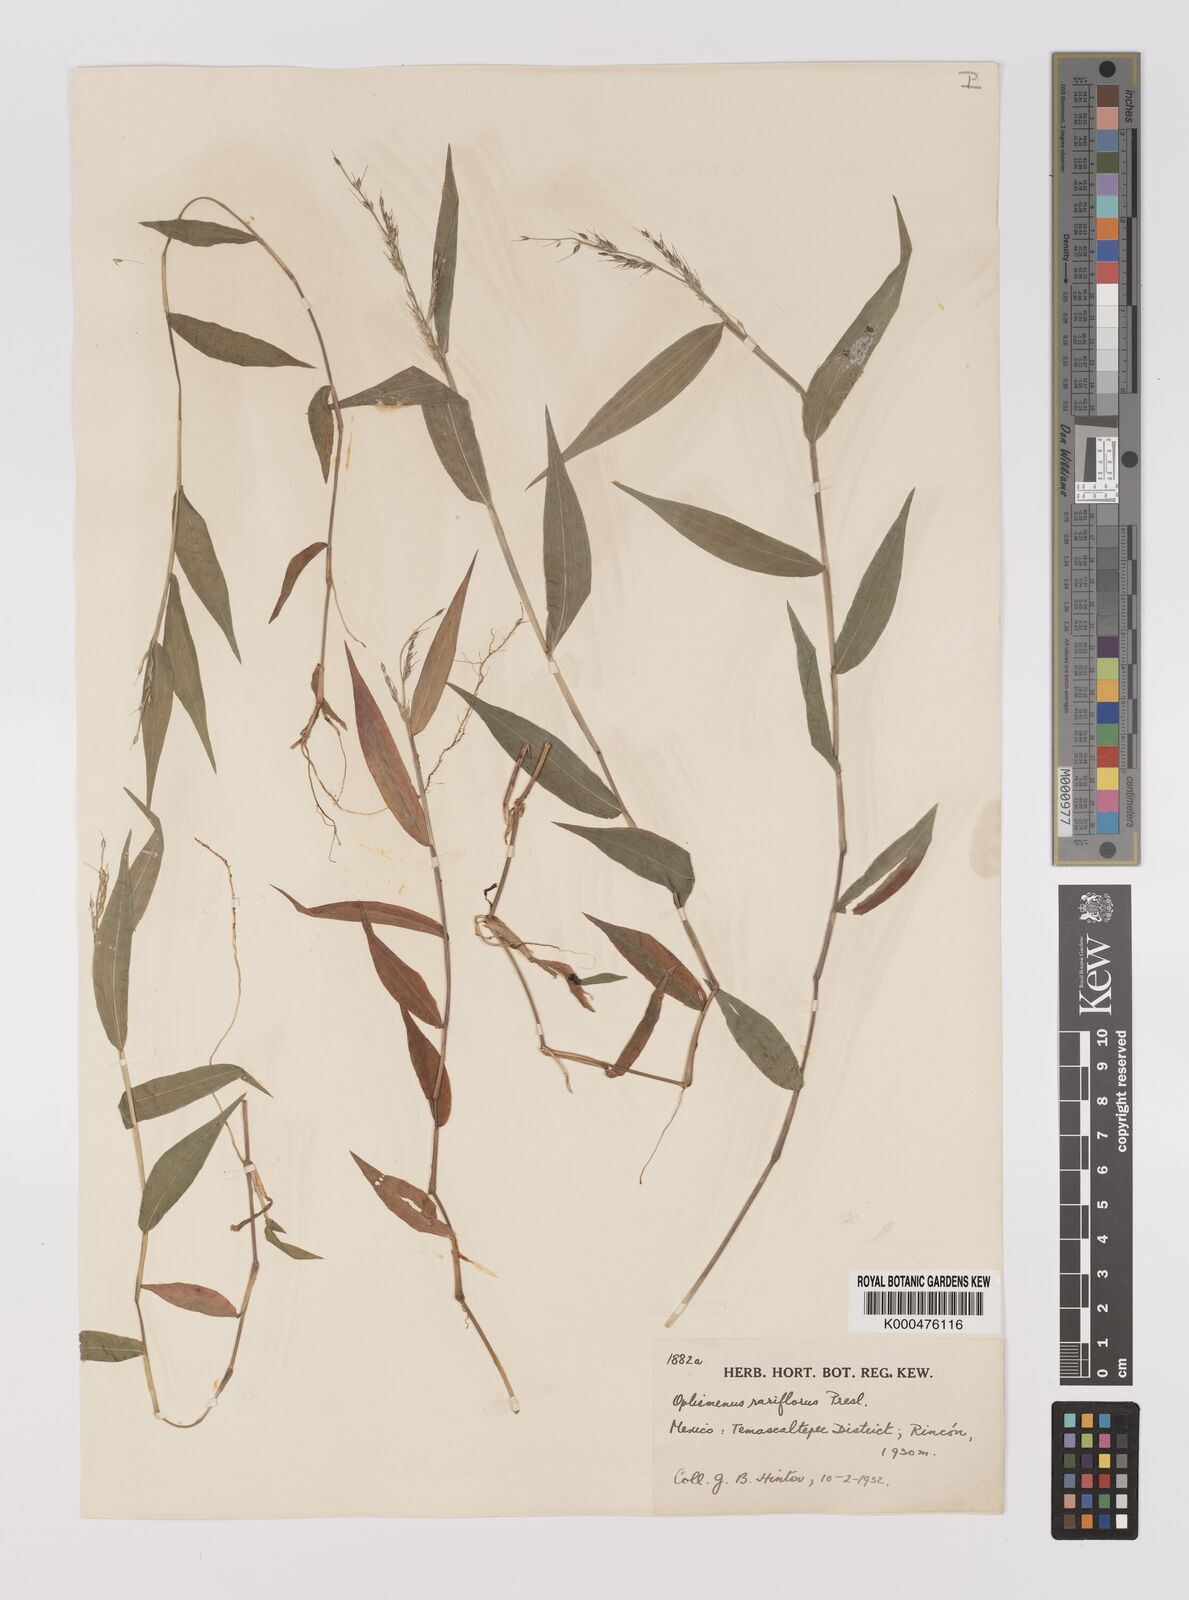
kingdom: Plantae
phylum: Tracheophyta
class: Liliopsida
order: Poales
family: Poaceae
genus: Oplismenus
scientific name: Oplismenus compositus
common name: Running mountain grass
